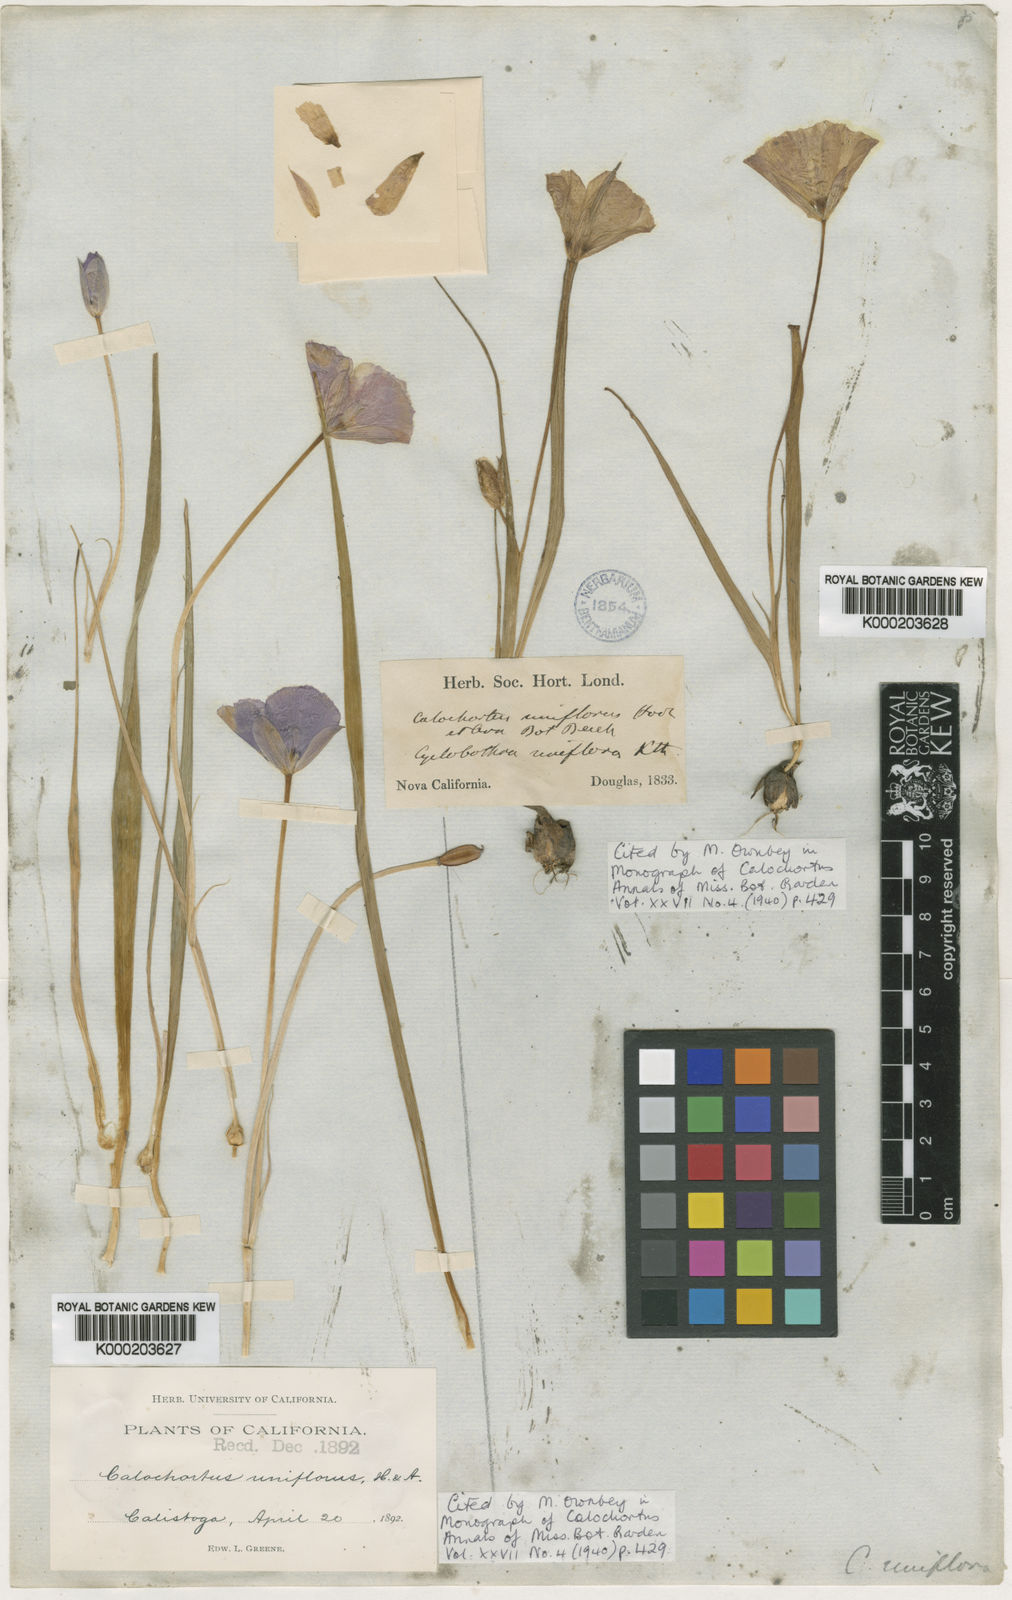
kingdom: Plantae
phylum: Tracheophyta
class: Liliopsida
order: Liliales
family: Liliaceae
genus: Calochortus
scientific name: Calochortus uniflorus
